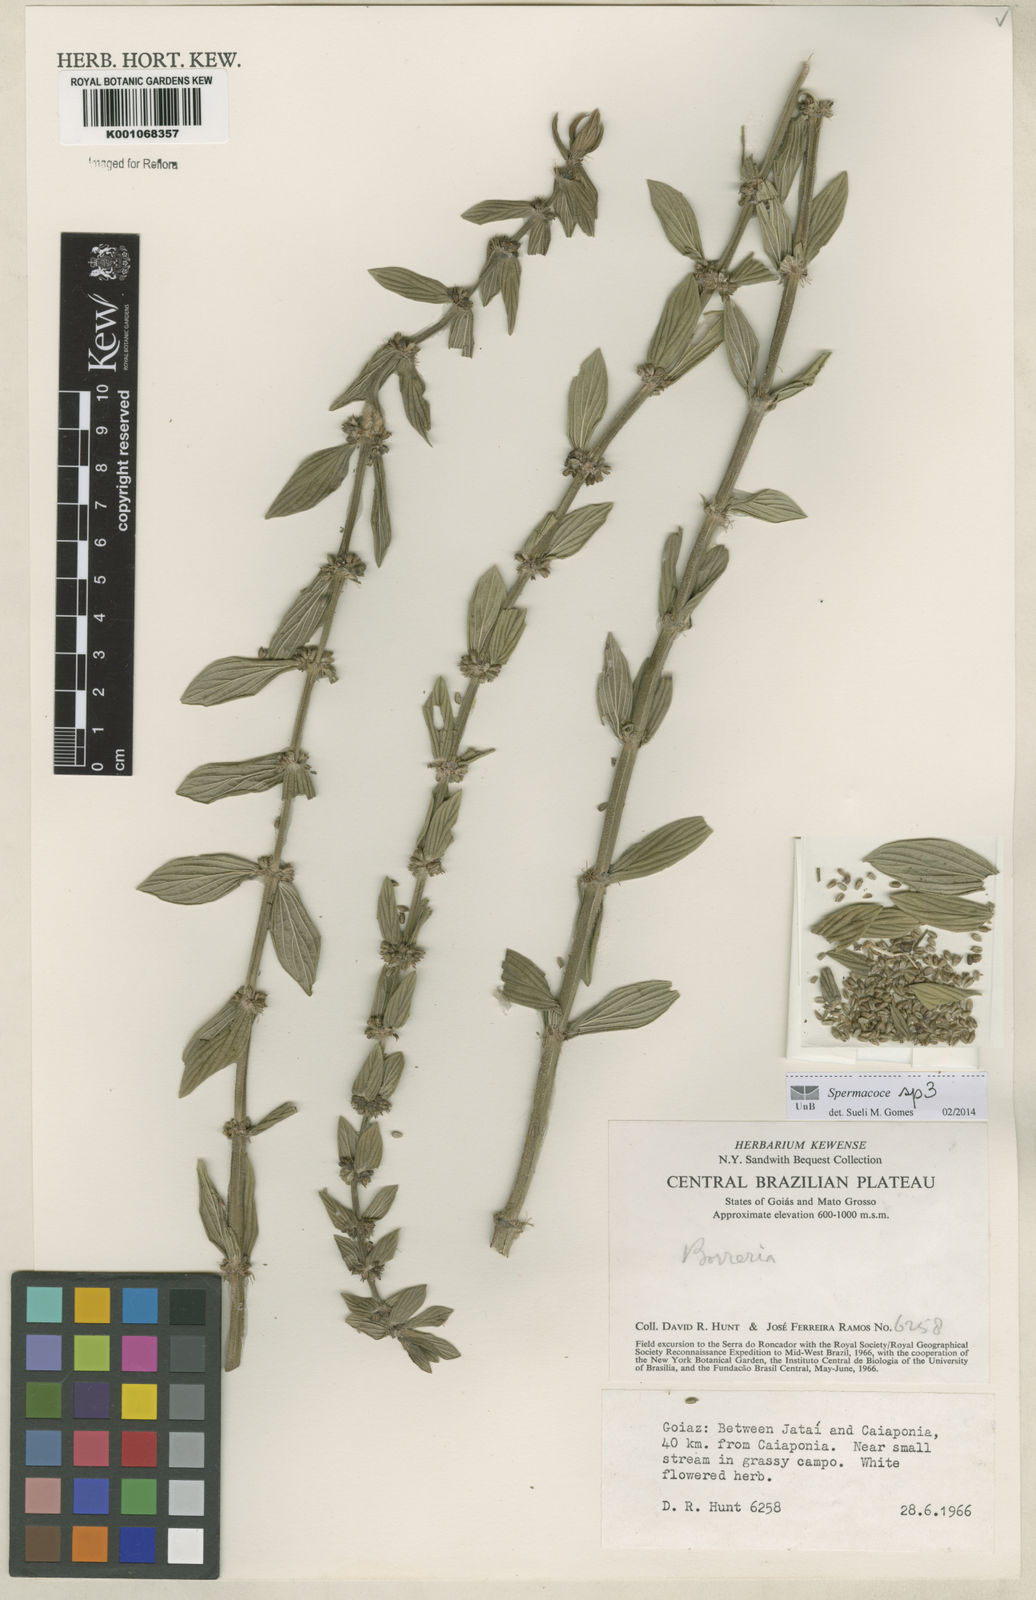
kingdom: Plantae
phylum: Tracheophyta
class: Magnoliopsida
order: Gentianales
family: Rubiaceae
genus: Spermacoce
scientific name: Spermacoce
